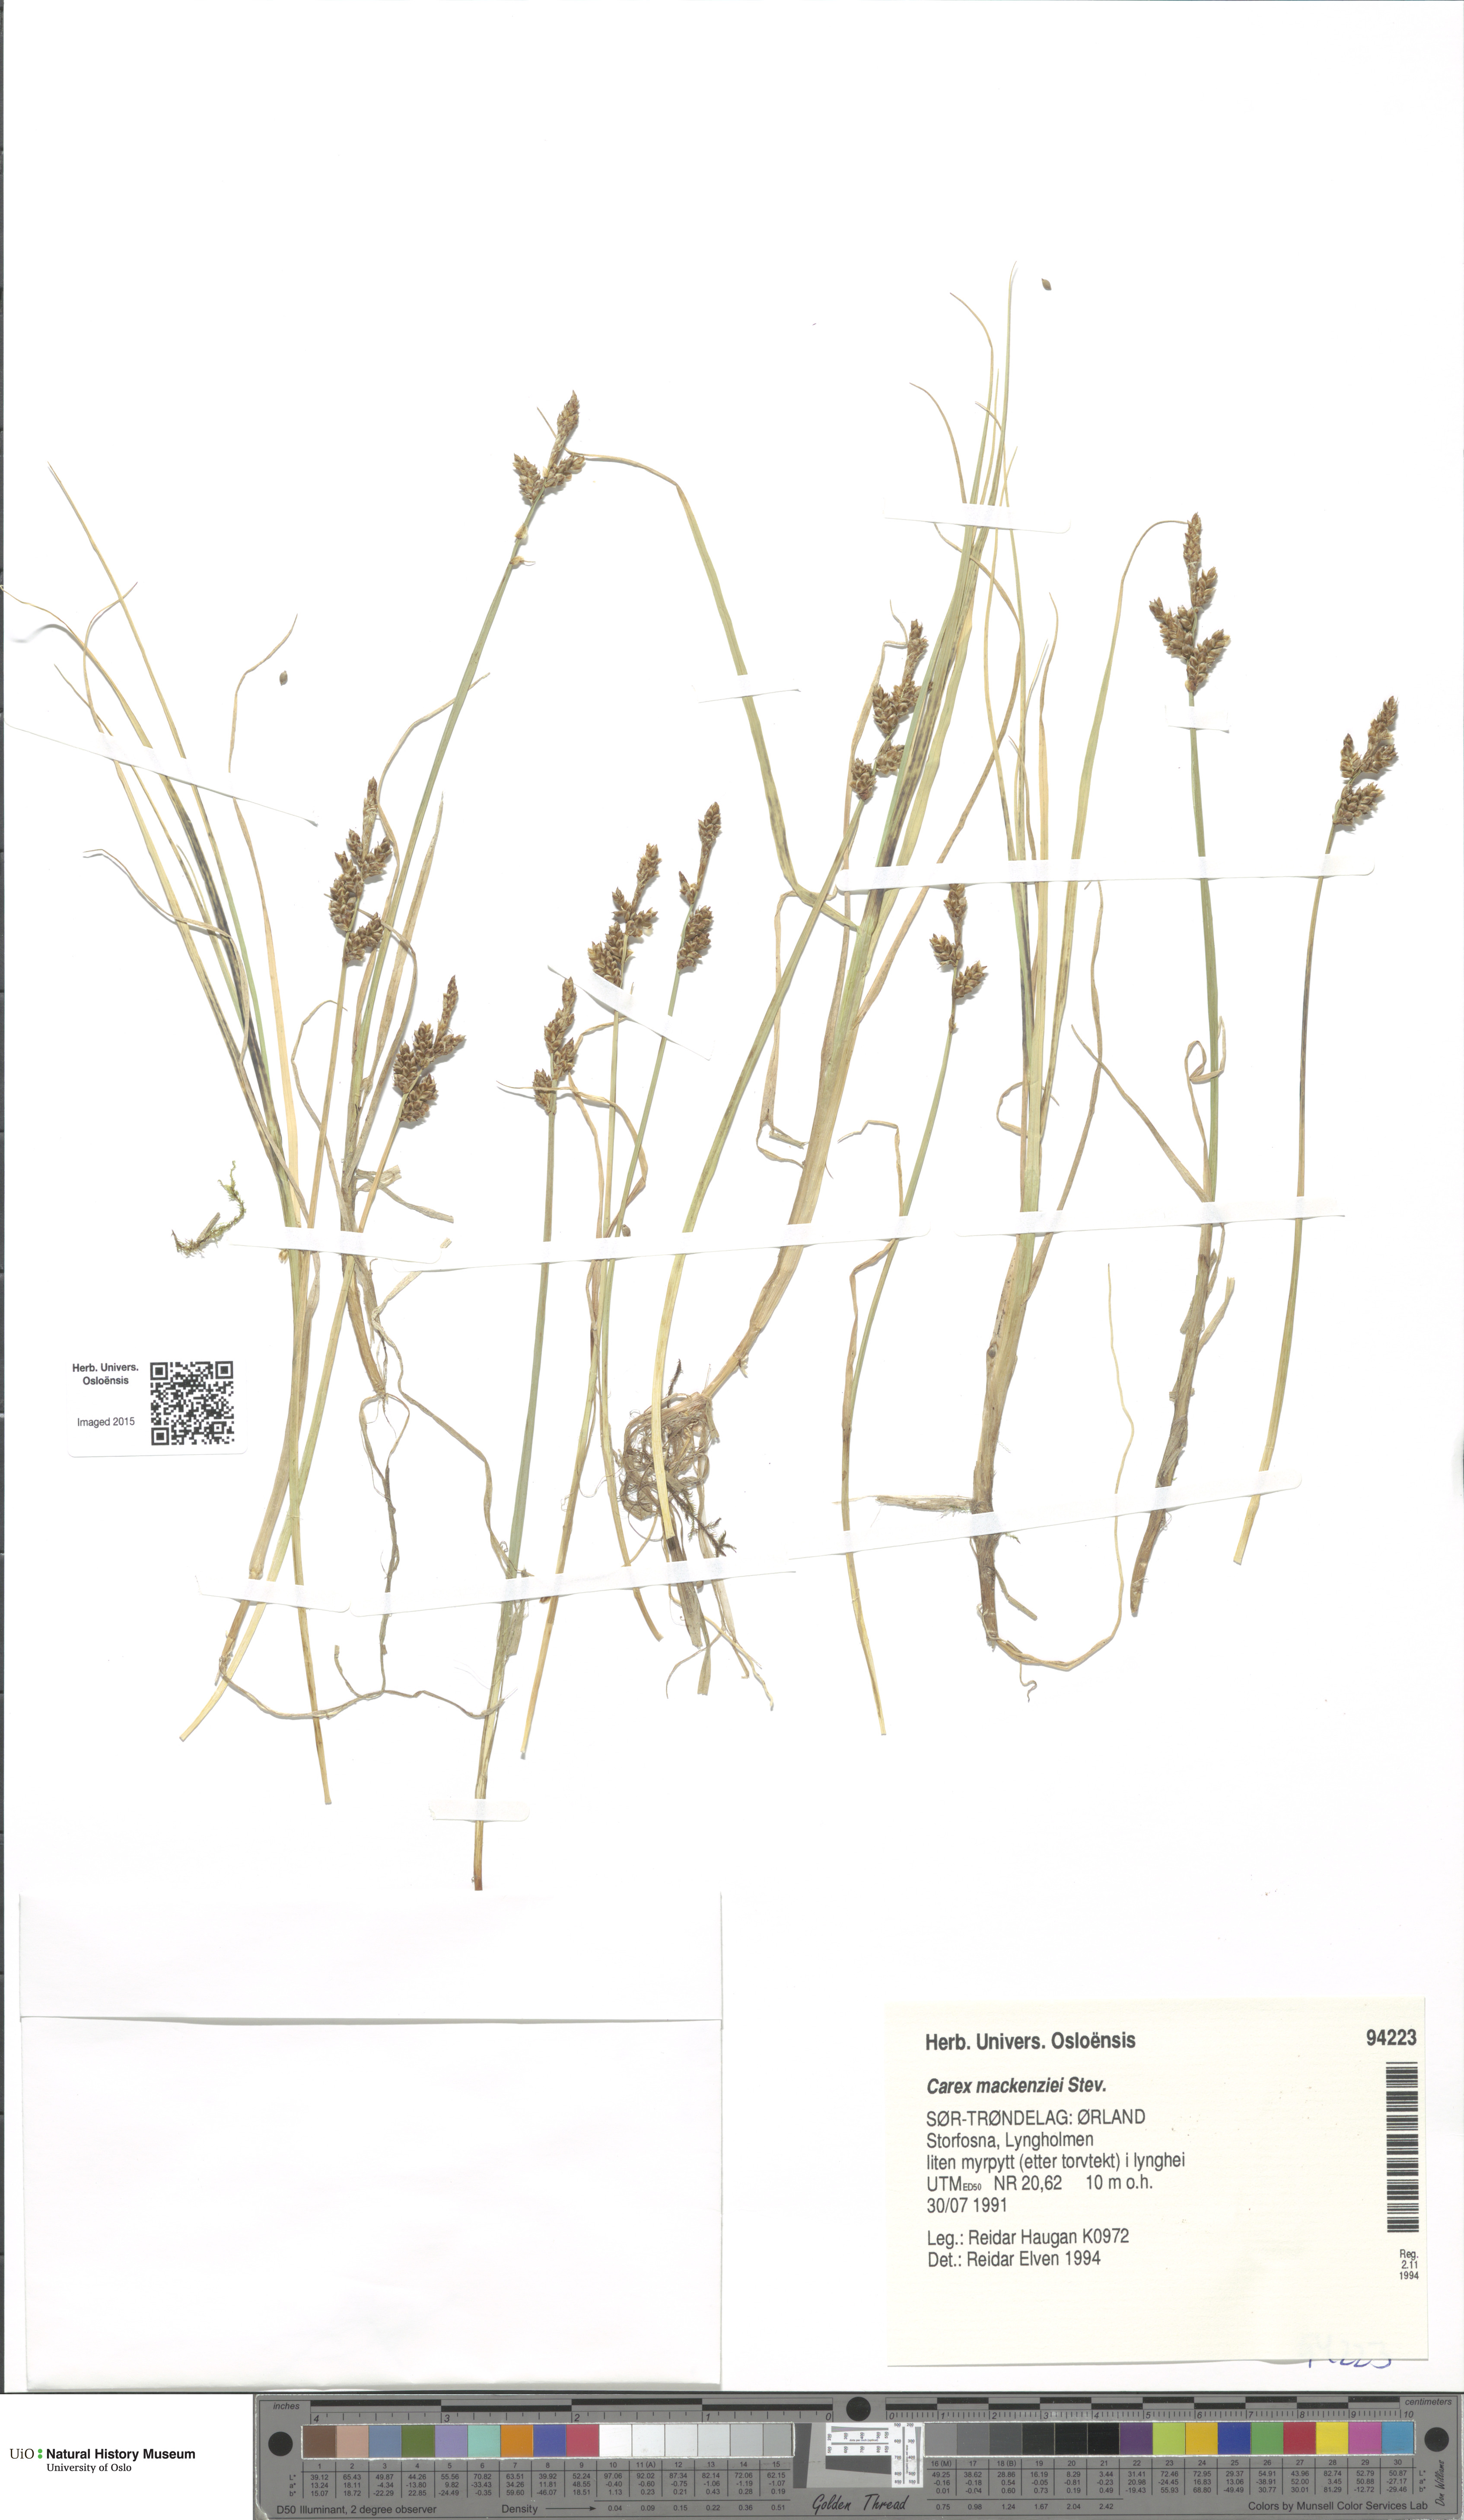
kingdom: Plantae
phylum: Tracheophyta
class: Liliopsida
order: Poales
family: Cyperaceae
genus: Carex
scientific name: Carex mackenziei
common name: Mackenzie's sedge
